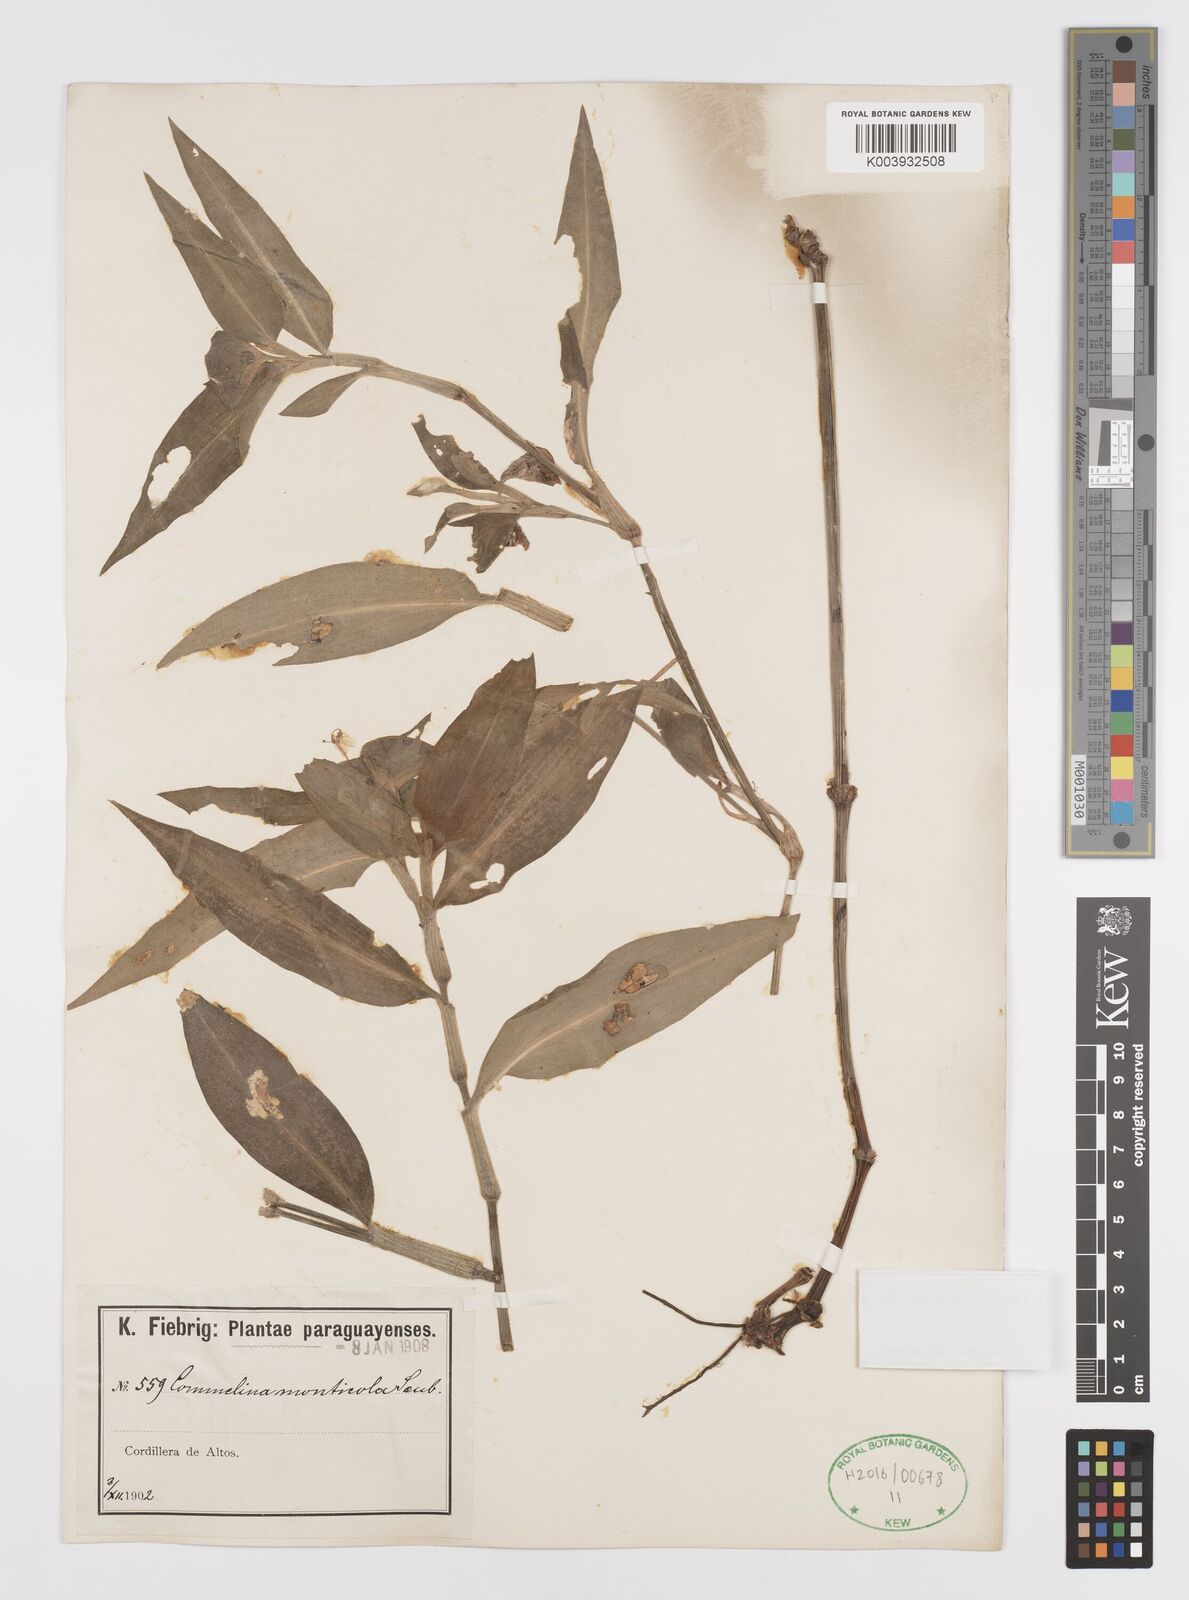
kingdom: Plantae
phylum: Tracheophyta
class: Liliopsida
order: Commelinales
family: Commelinaceae
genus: Commelina
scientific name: Commelina erecta
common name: Blousel blommetjie
